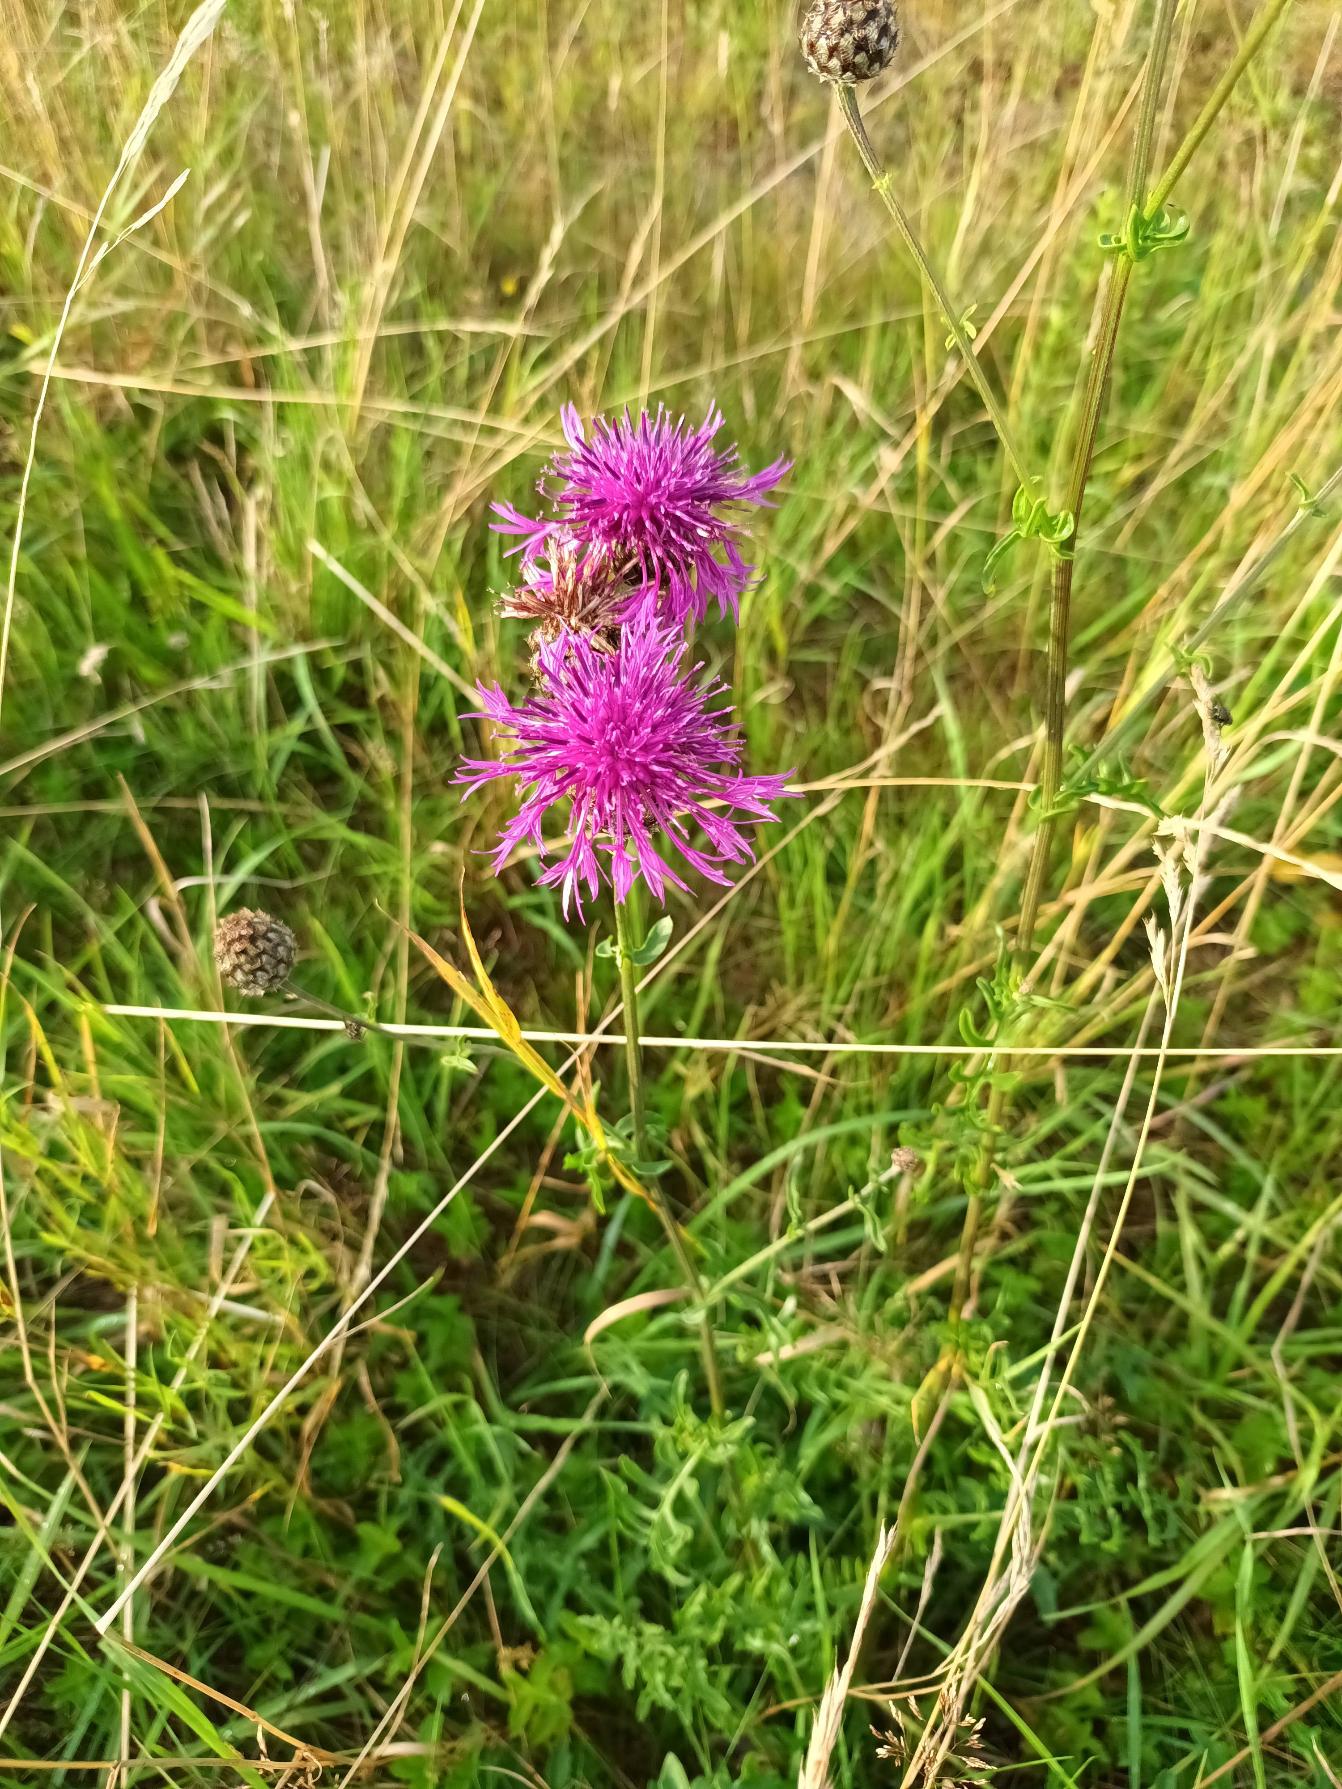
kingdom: Plantae
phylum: Tracheophyta
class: Magnoliopsida
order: Asterales
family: Asteraceae
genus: Centaurea
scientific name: Centaurea scabiosa
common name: Stor knopurt
